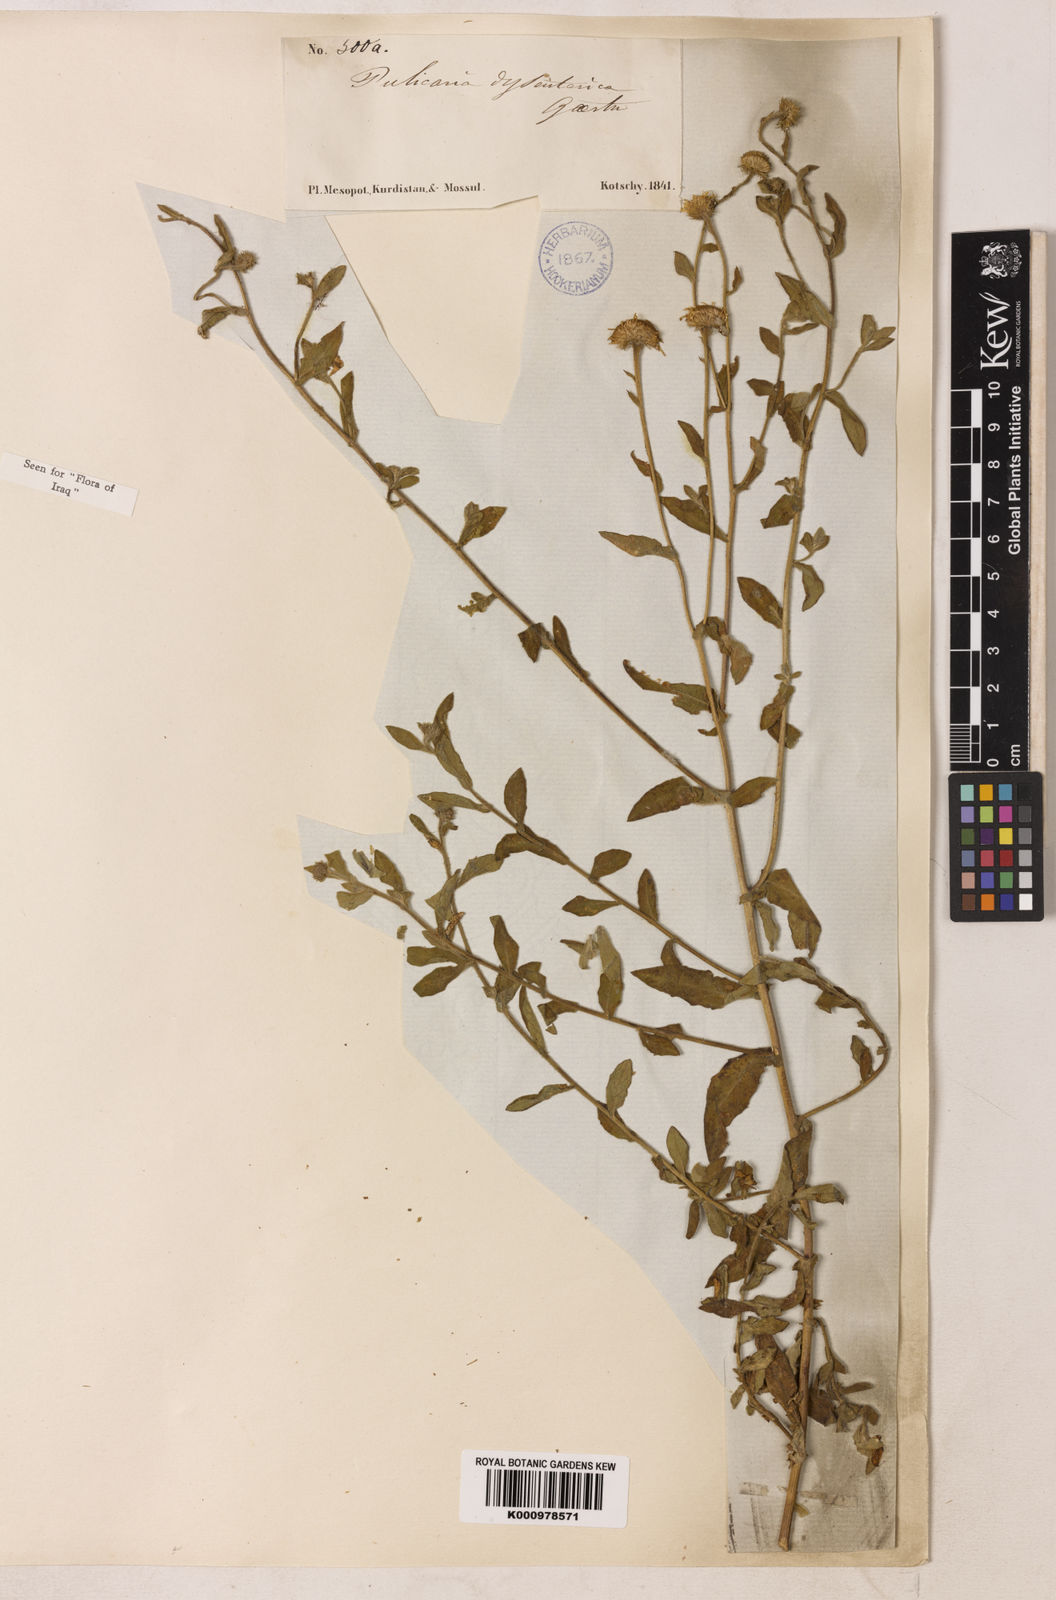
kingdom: Plantae
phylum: Tracheophyta
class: Magnoliopsida
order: Asterales
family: Asteraceae
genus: Pulicaria
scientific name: Pulicaria
